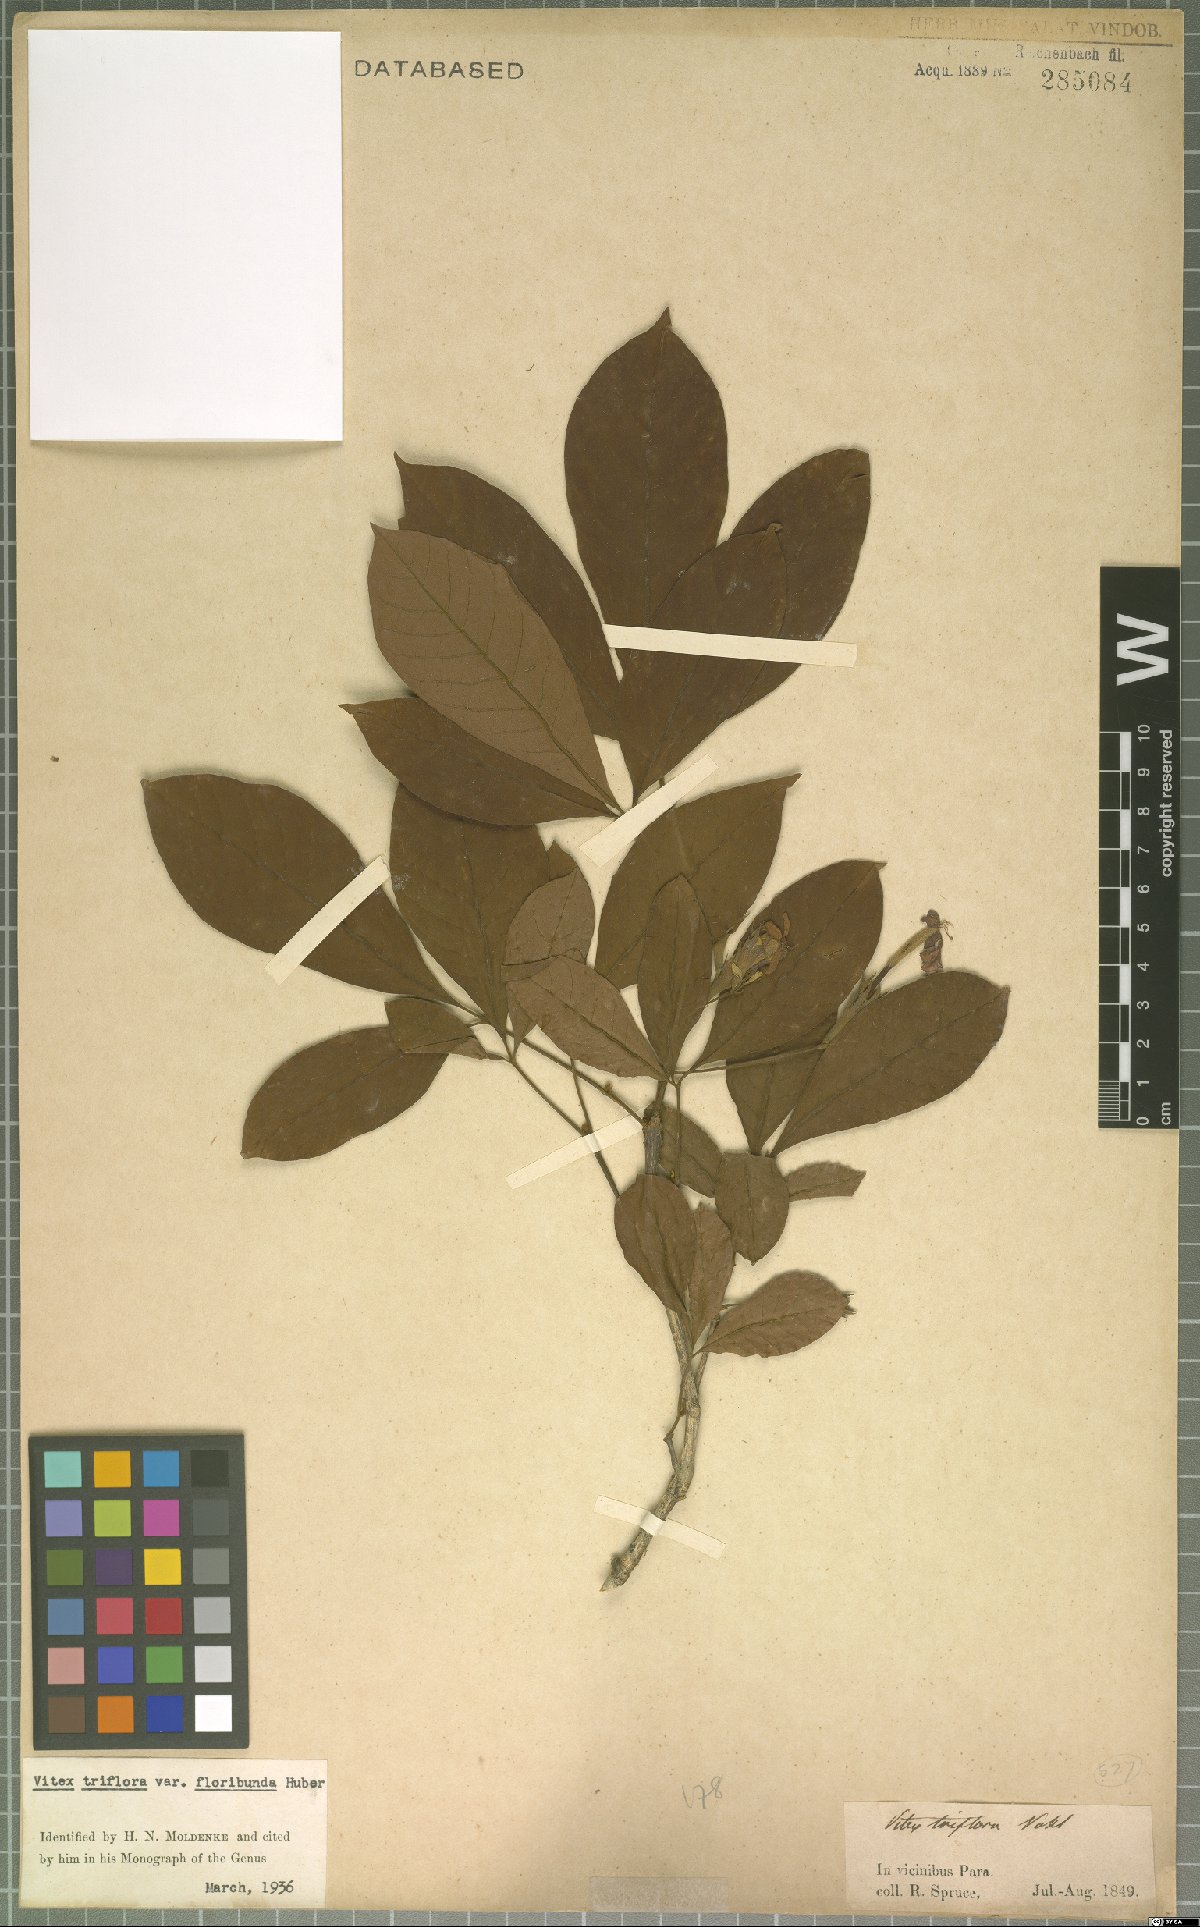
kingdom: Plantae
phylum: Tracheophyta
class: Magnoliopsida
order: Lamiales
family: Lamiaceae
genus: Vitex
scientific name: Vitex triflora
